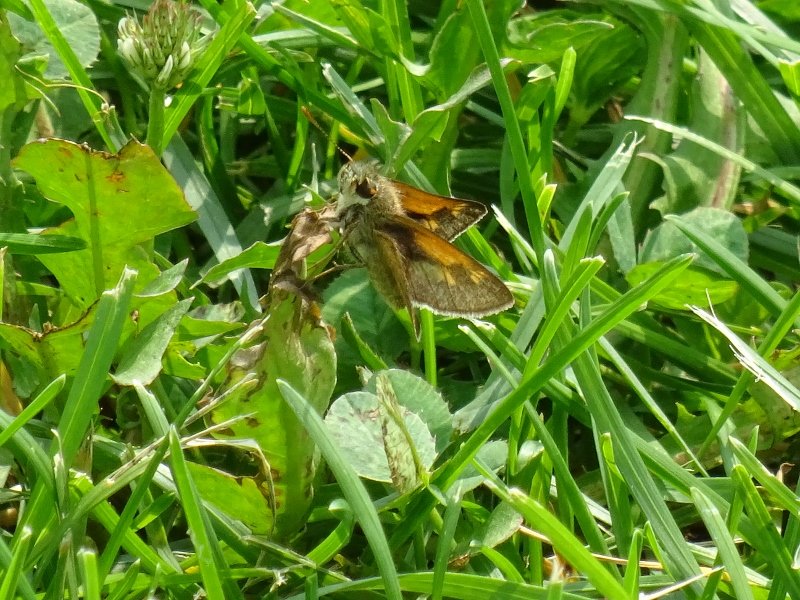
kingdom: Animalia
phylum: Arthropoda
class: Insecta
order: Lepidoptera
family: Hesperiidae
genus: Polites
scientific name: Polites themistocles
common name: Tawny-edged Skipper
